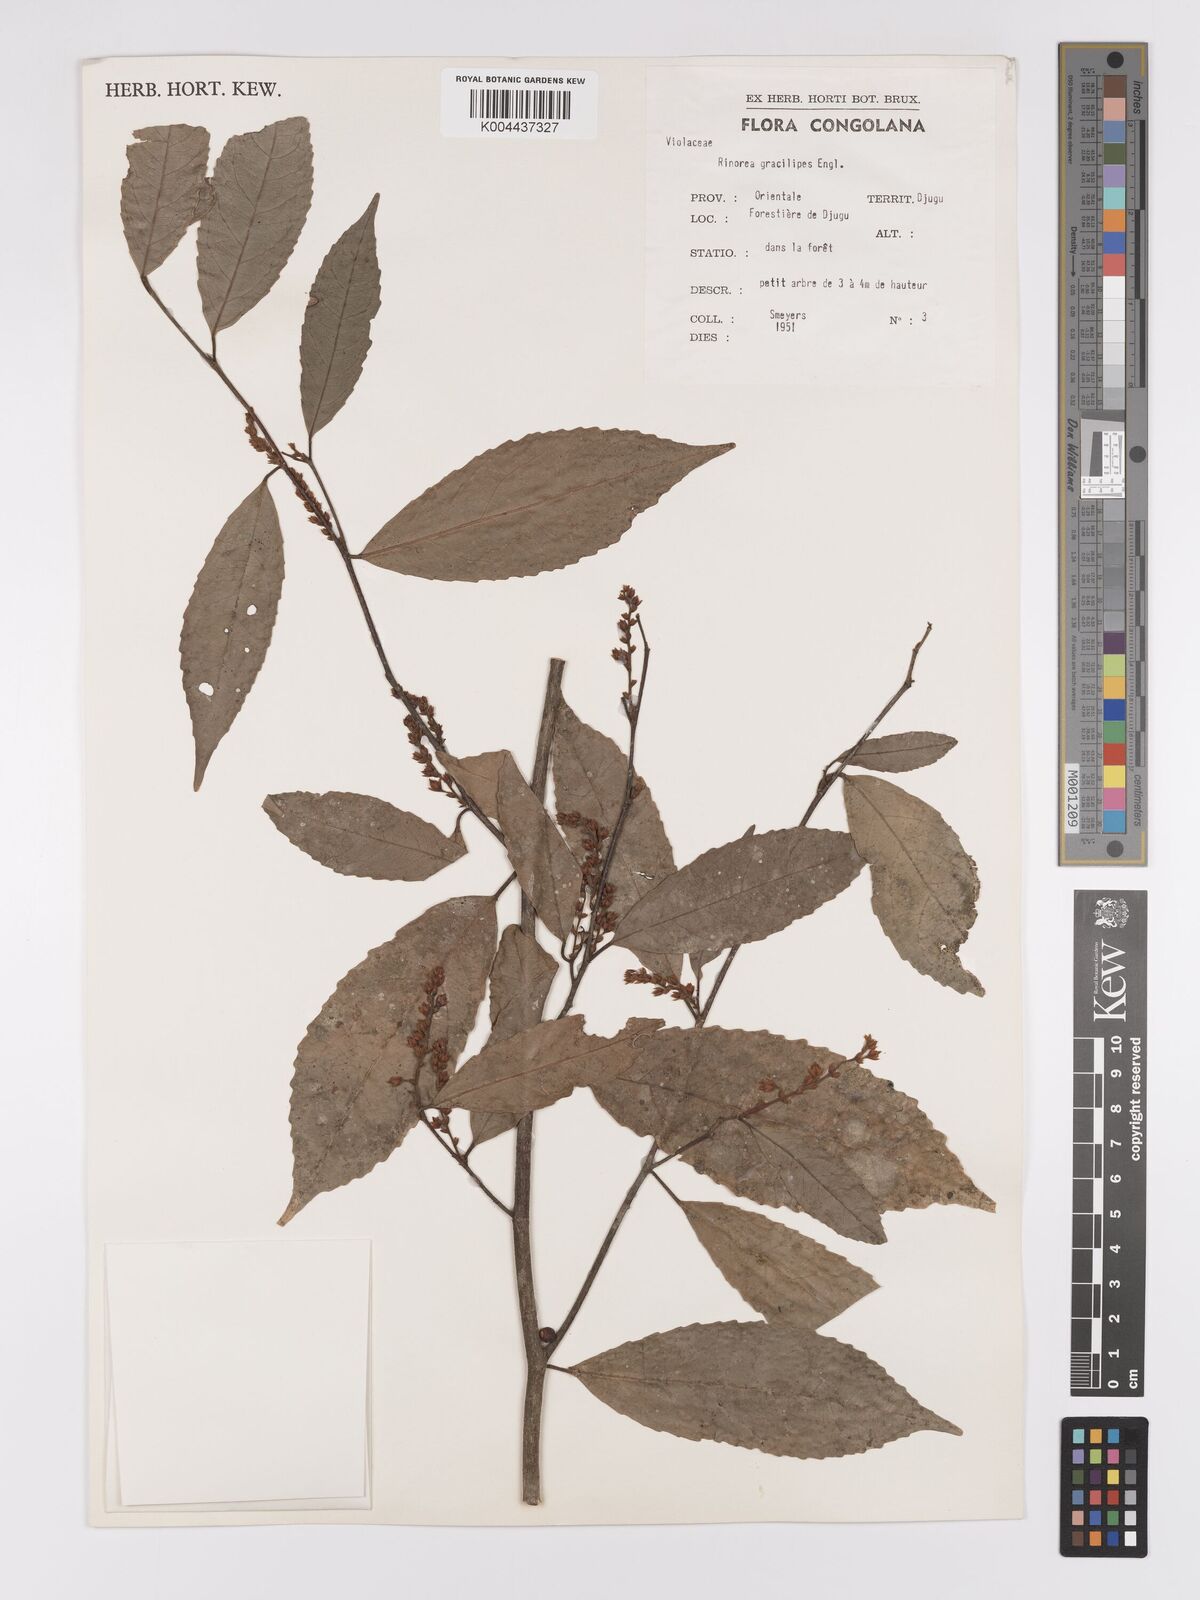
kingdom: Plantae
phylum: Tracheophyta
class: Magnoliopsida
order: Malpighiales
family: Violaceae
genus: Rinorea
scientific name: Rinorea angustifolia
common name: White violet-bush
